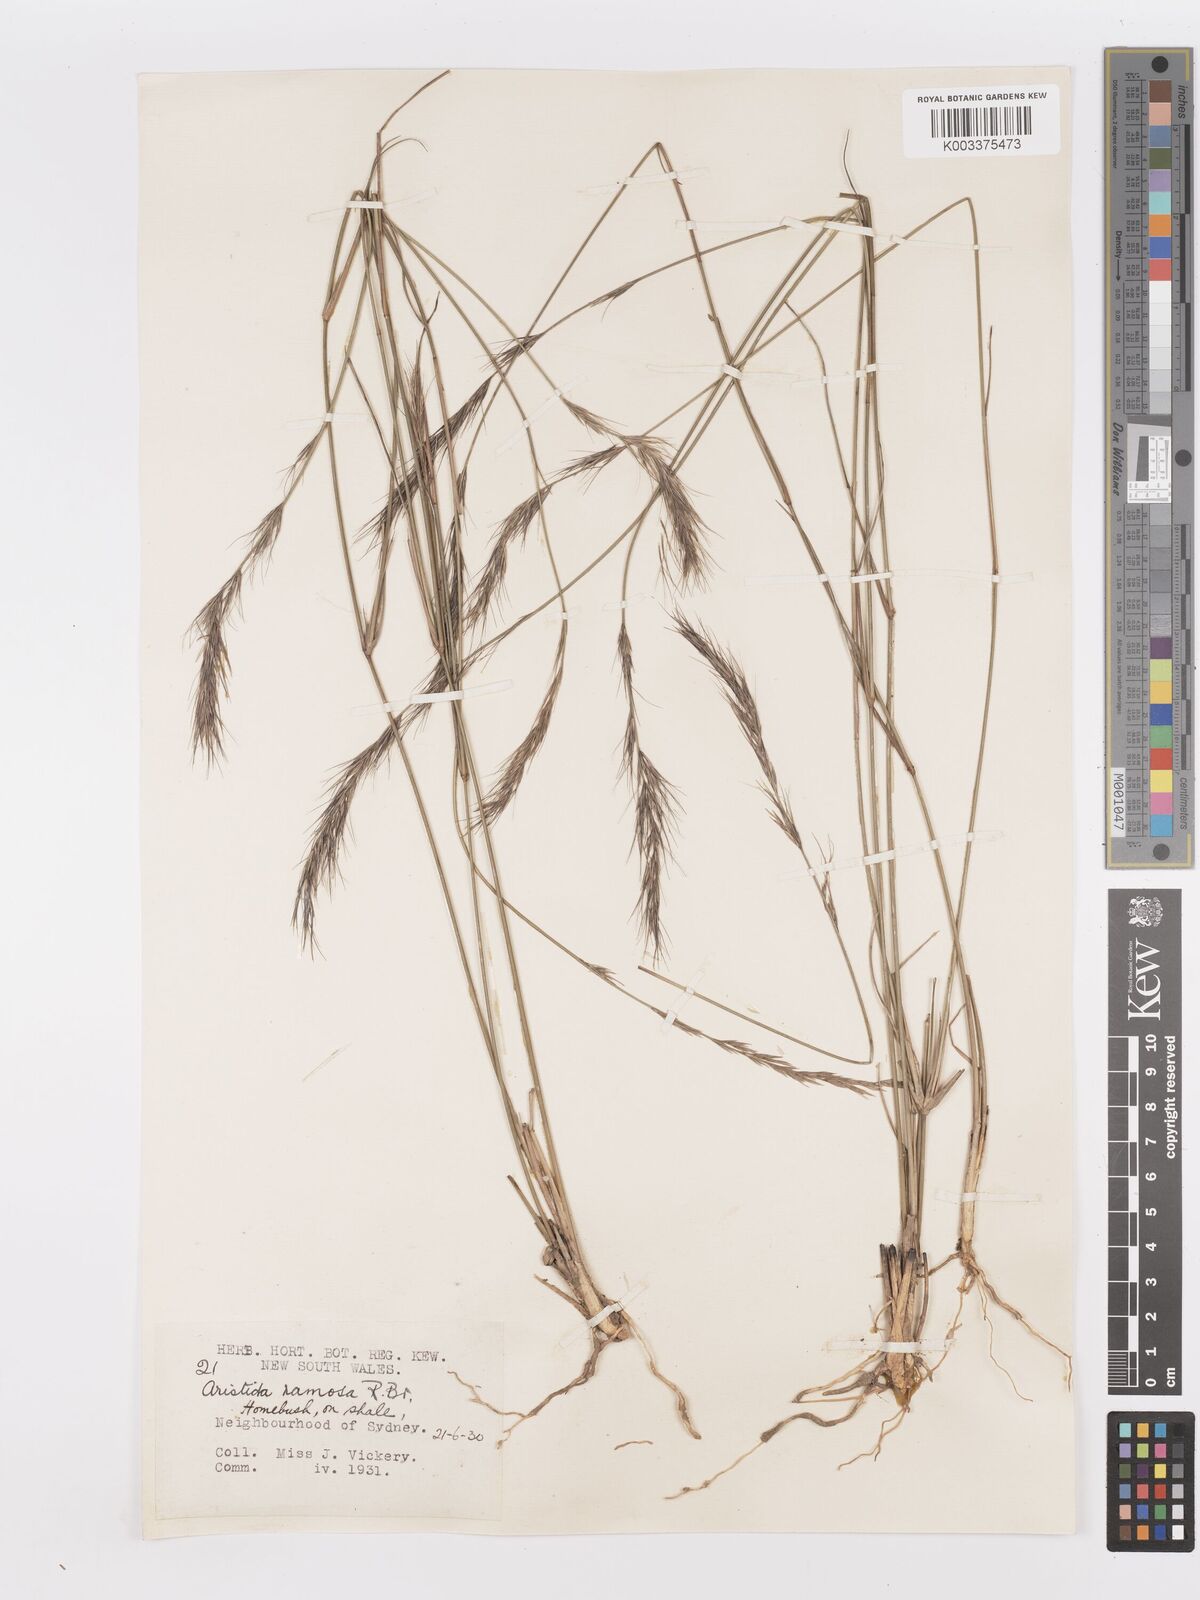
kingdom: Plantae
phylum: Tracheophyta
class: Liliopsida
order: Poales
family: Poaceae
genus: Aristida
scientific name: Aristida ramosa
